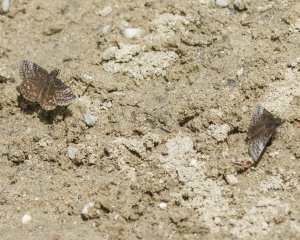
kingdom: Animalia
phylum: Arthropoda
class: Insecta
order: Lepidoptera
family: Hesperiidae
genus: Erynnis
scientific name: Erynnis icelus
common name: Dreamy Duskywing
